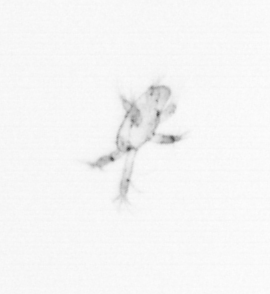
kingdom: Animalia
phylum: Arthropoda
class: Copepoda
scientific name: Copepoda
